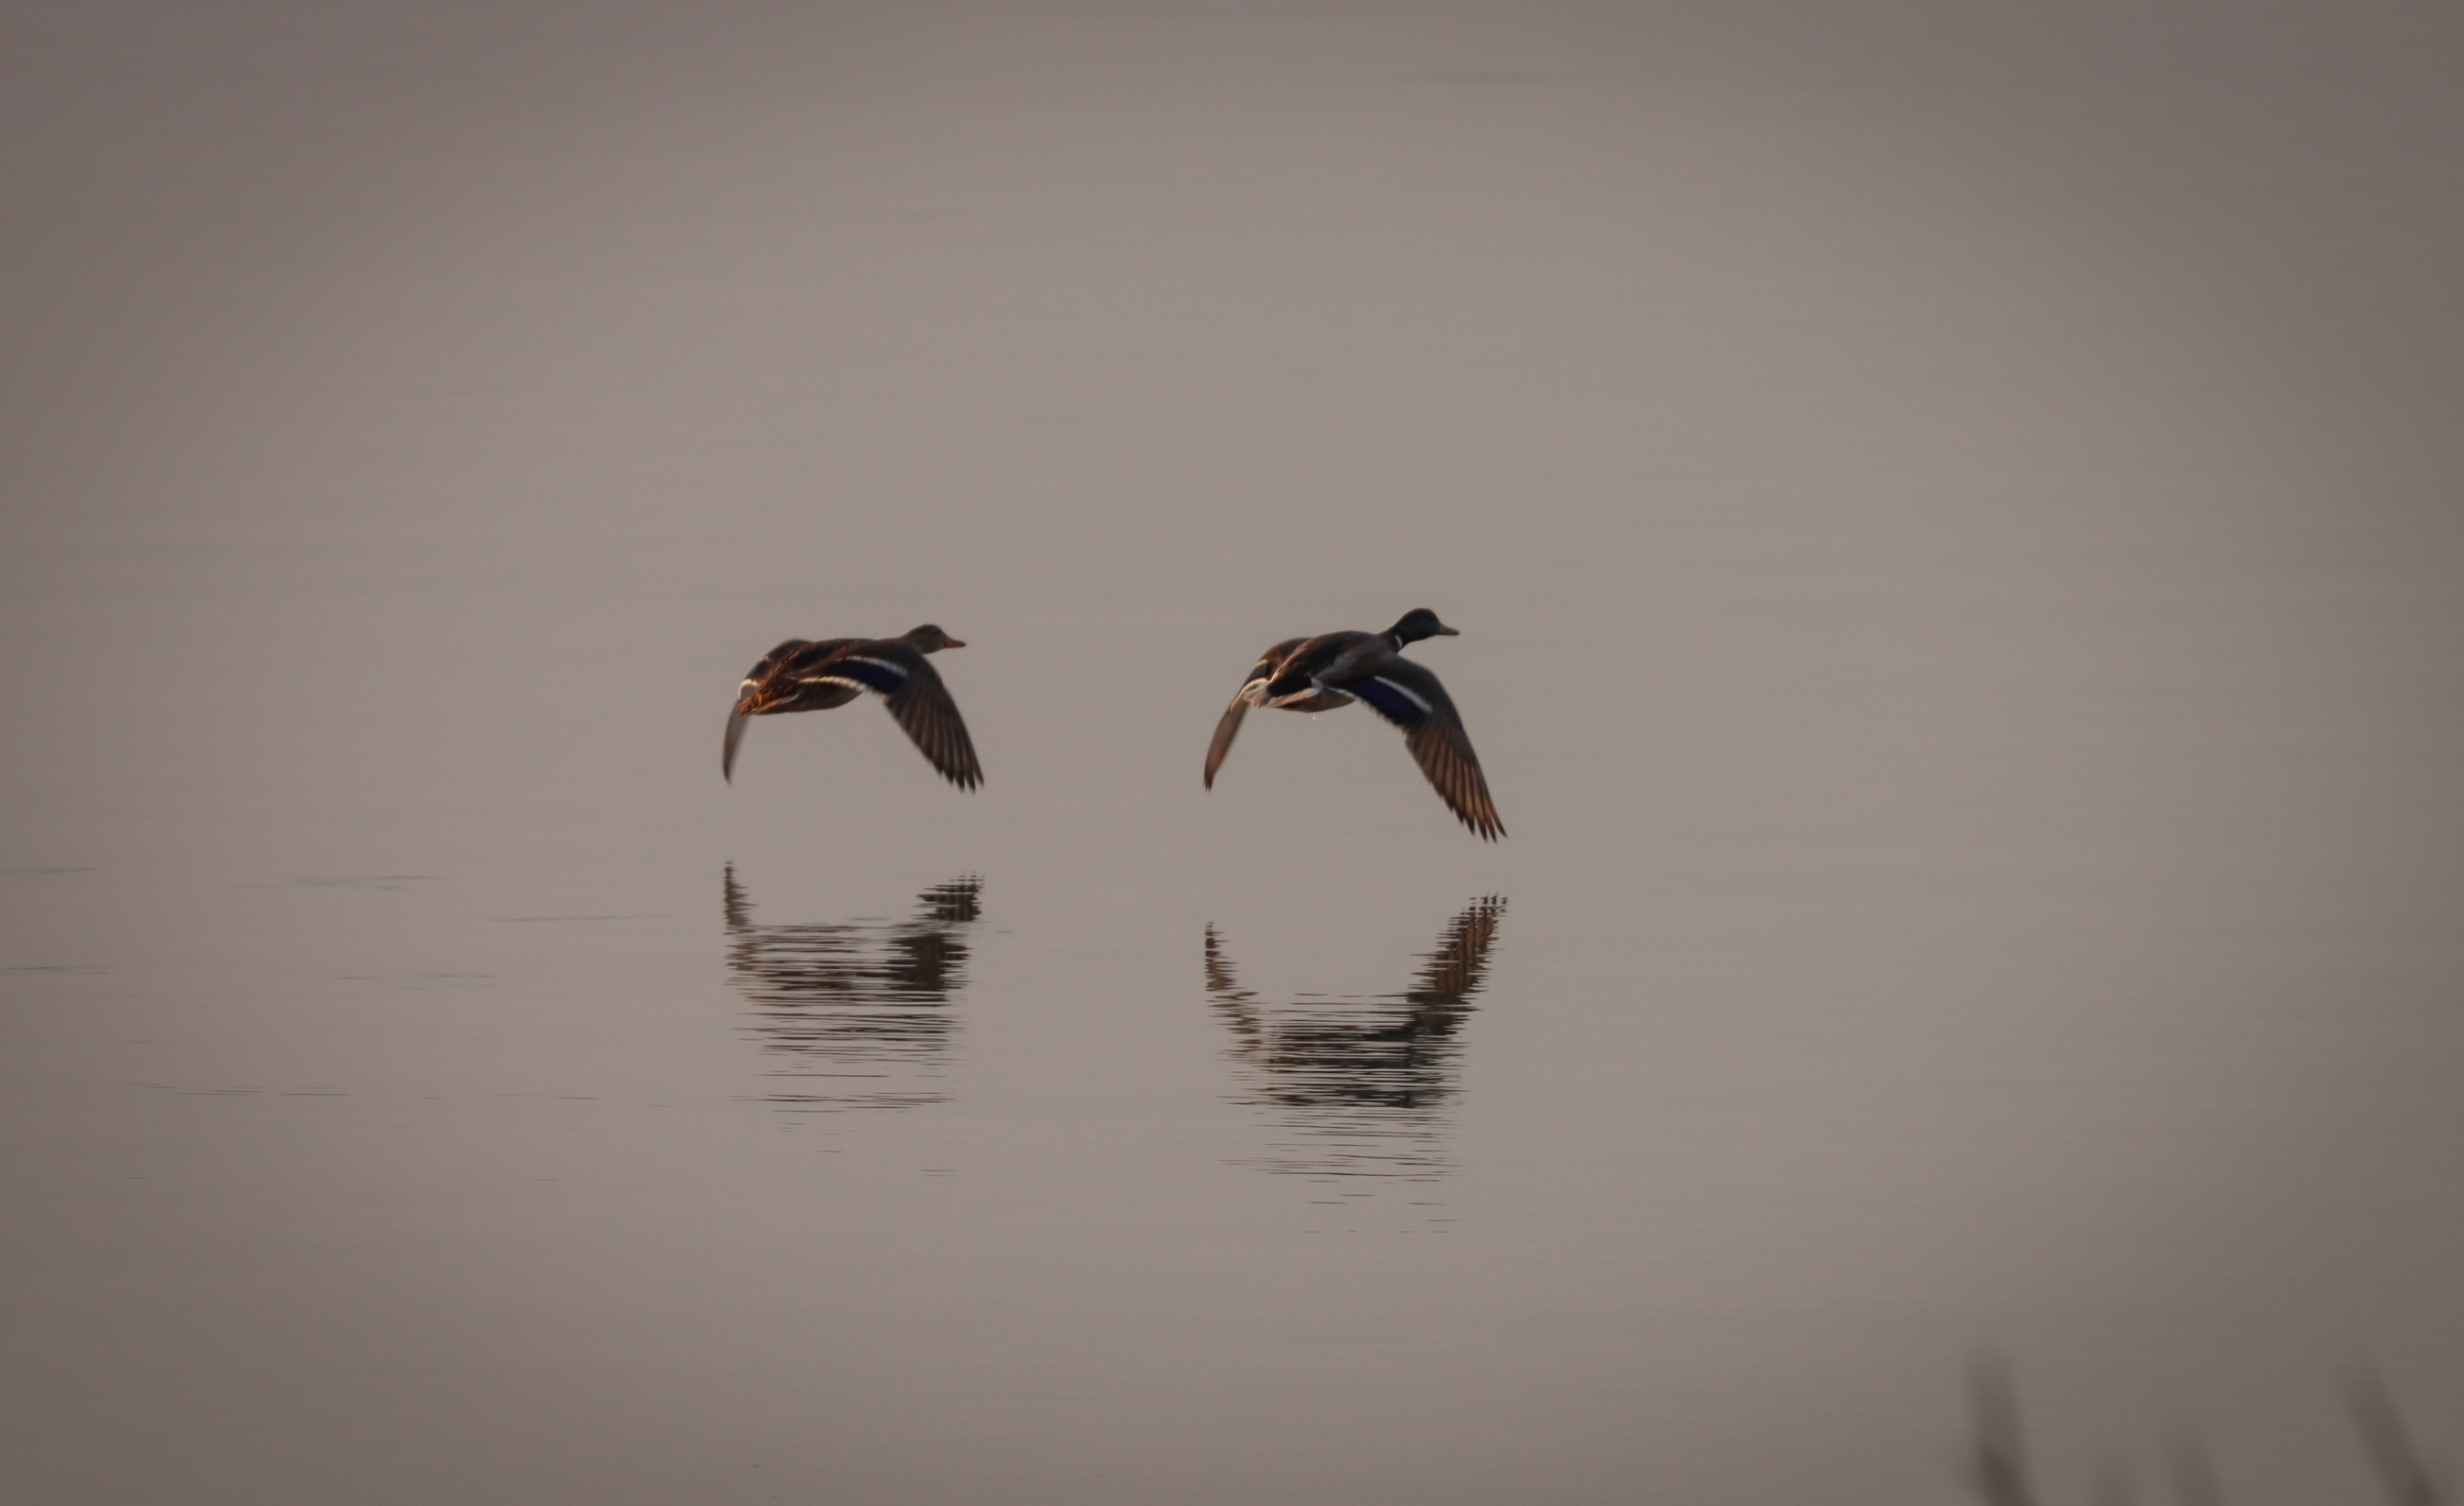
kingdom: Animalia
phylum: Chordata
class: Aves
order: Anseriformes
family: Anatidae
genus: Anas
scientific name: Anas platyrhynchos
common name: Gråand
